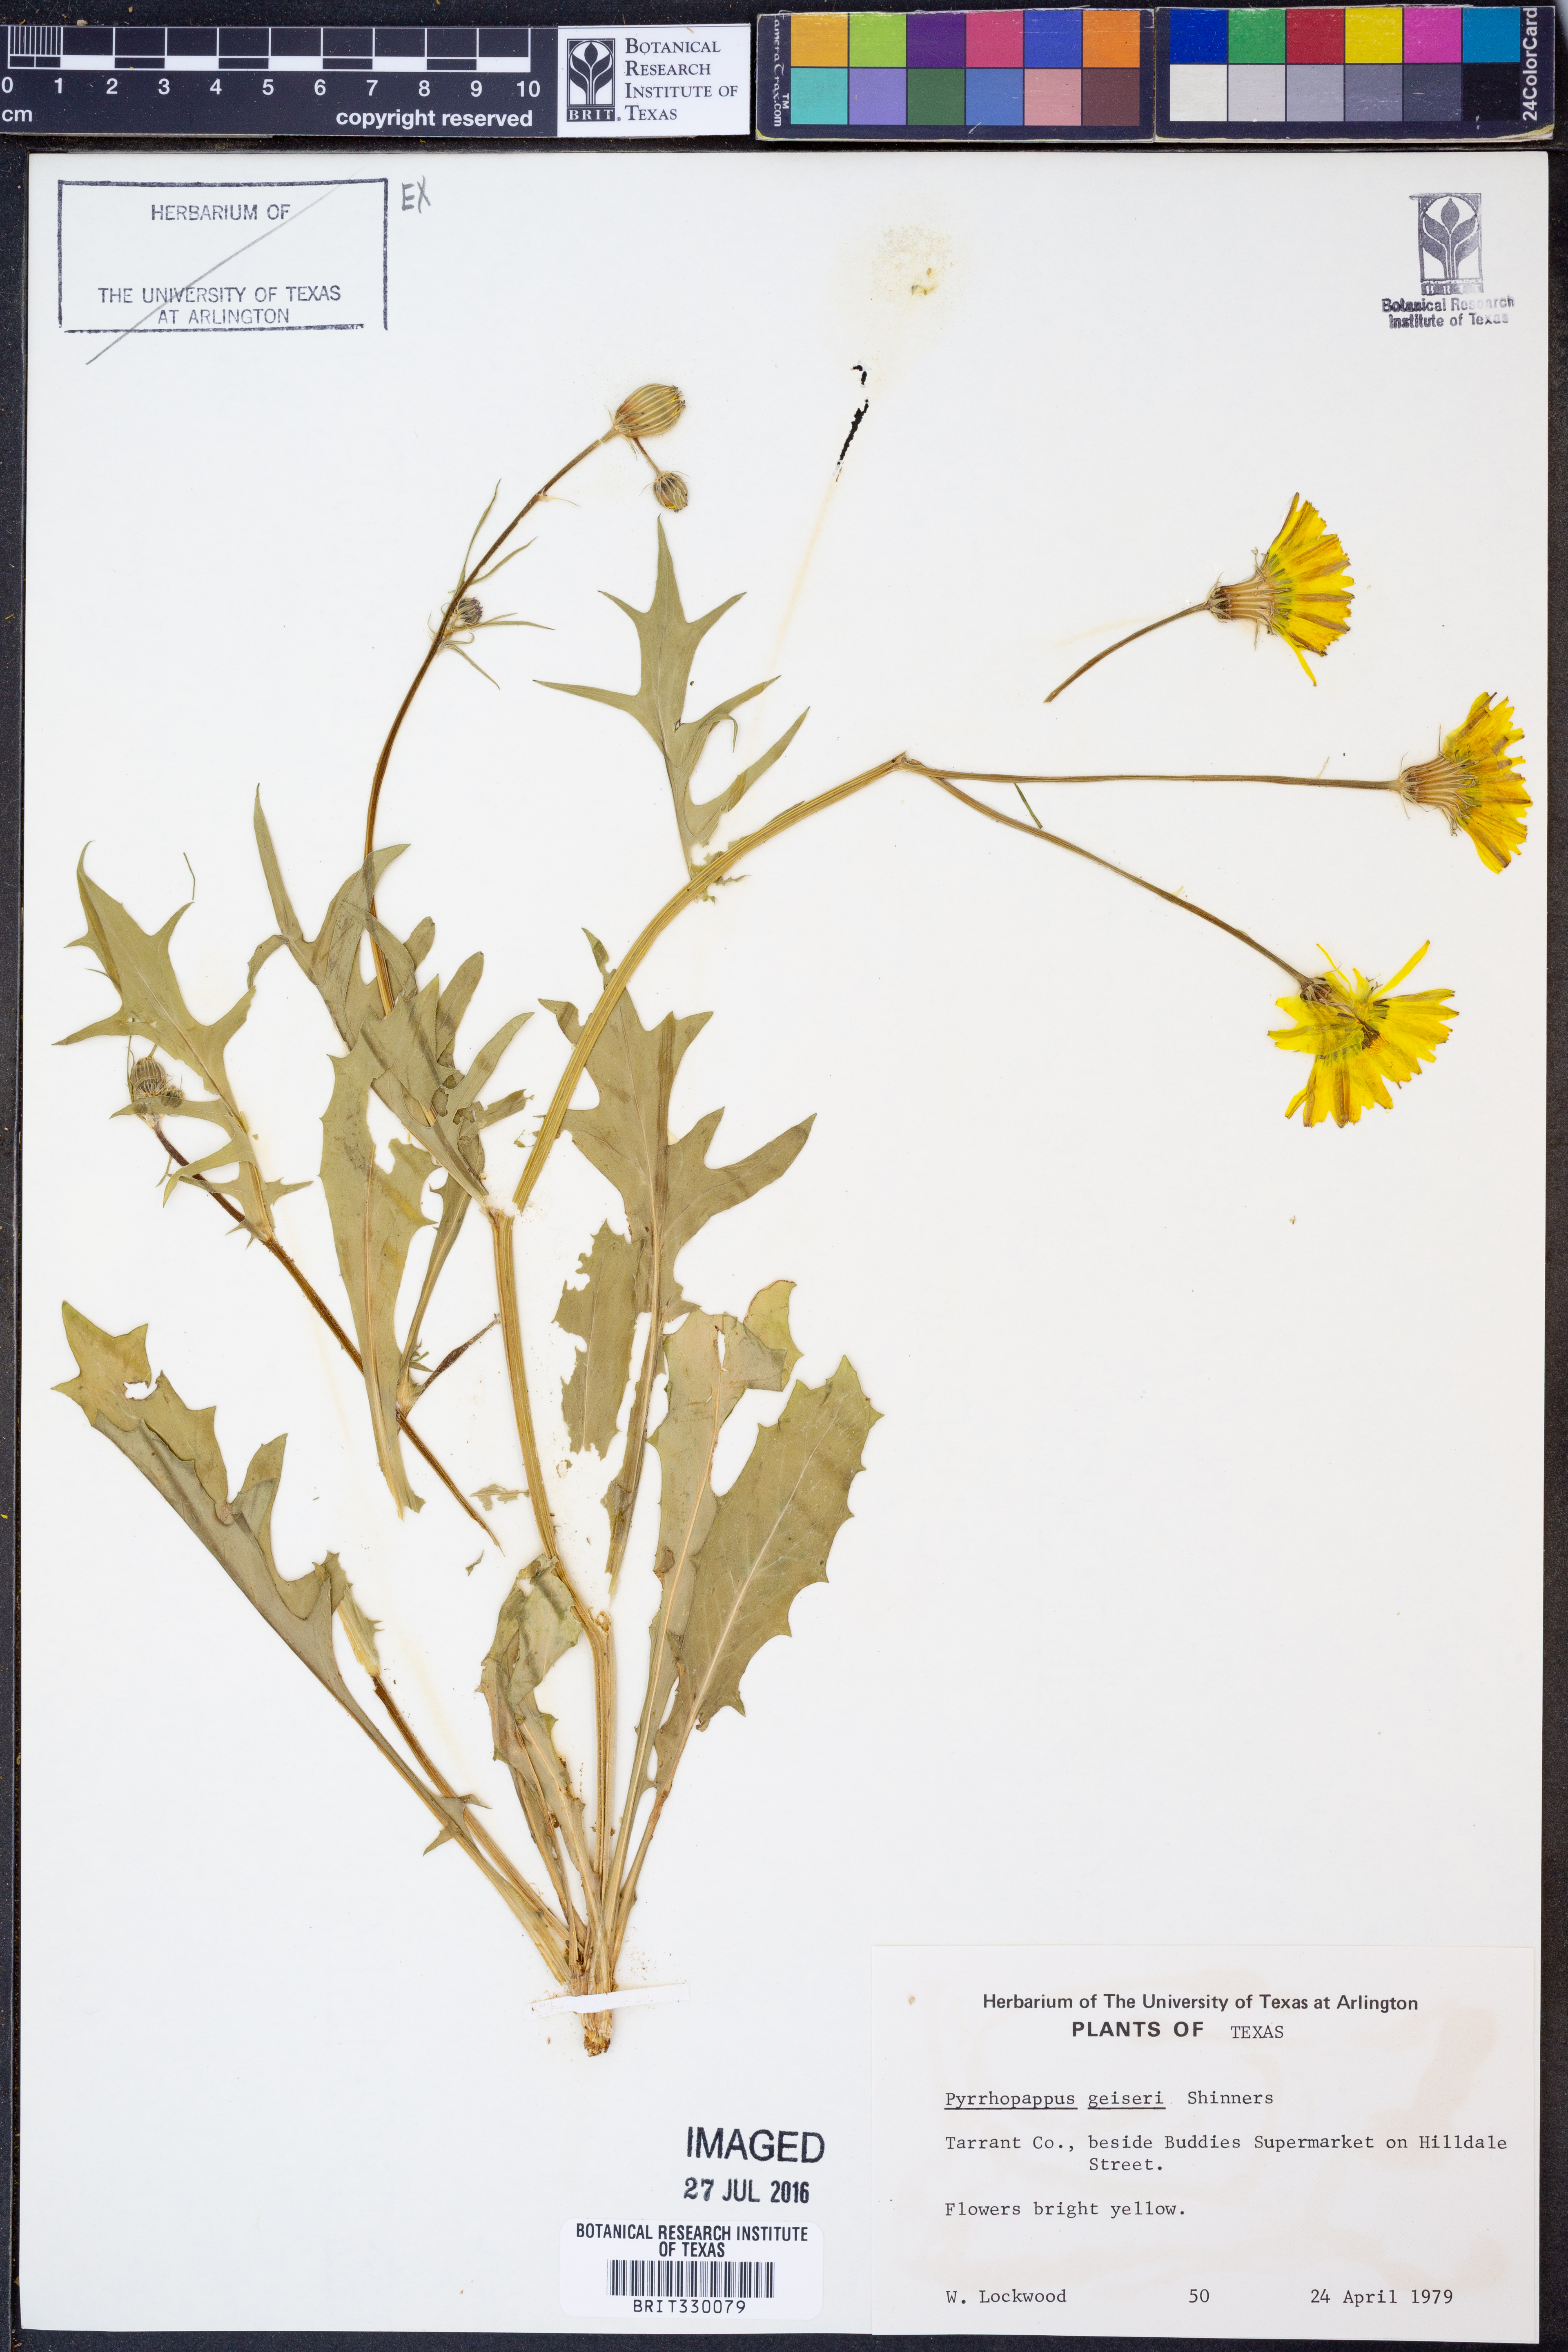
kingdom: Plantae
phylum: Tracheophyta
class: Magnoliopsida
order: Asterales
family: Asteraceae
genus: Pyrrhopappus
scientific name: Pyrrhopappus pauciflorus
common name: Texas false dandelion
